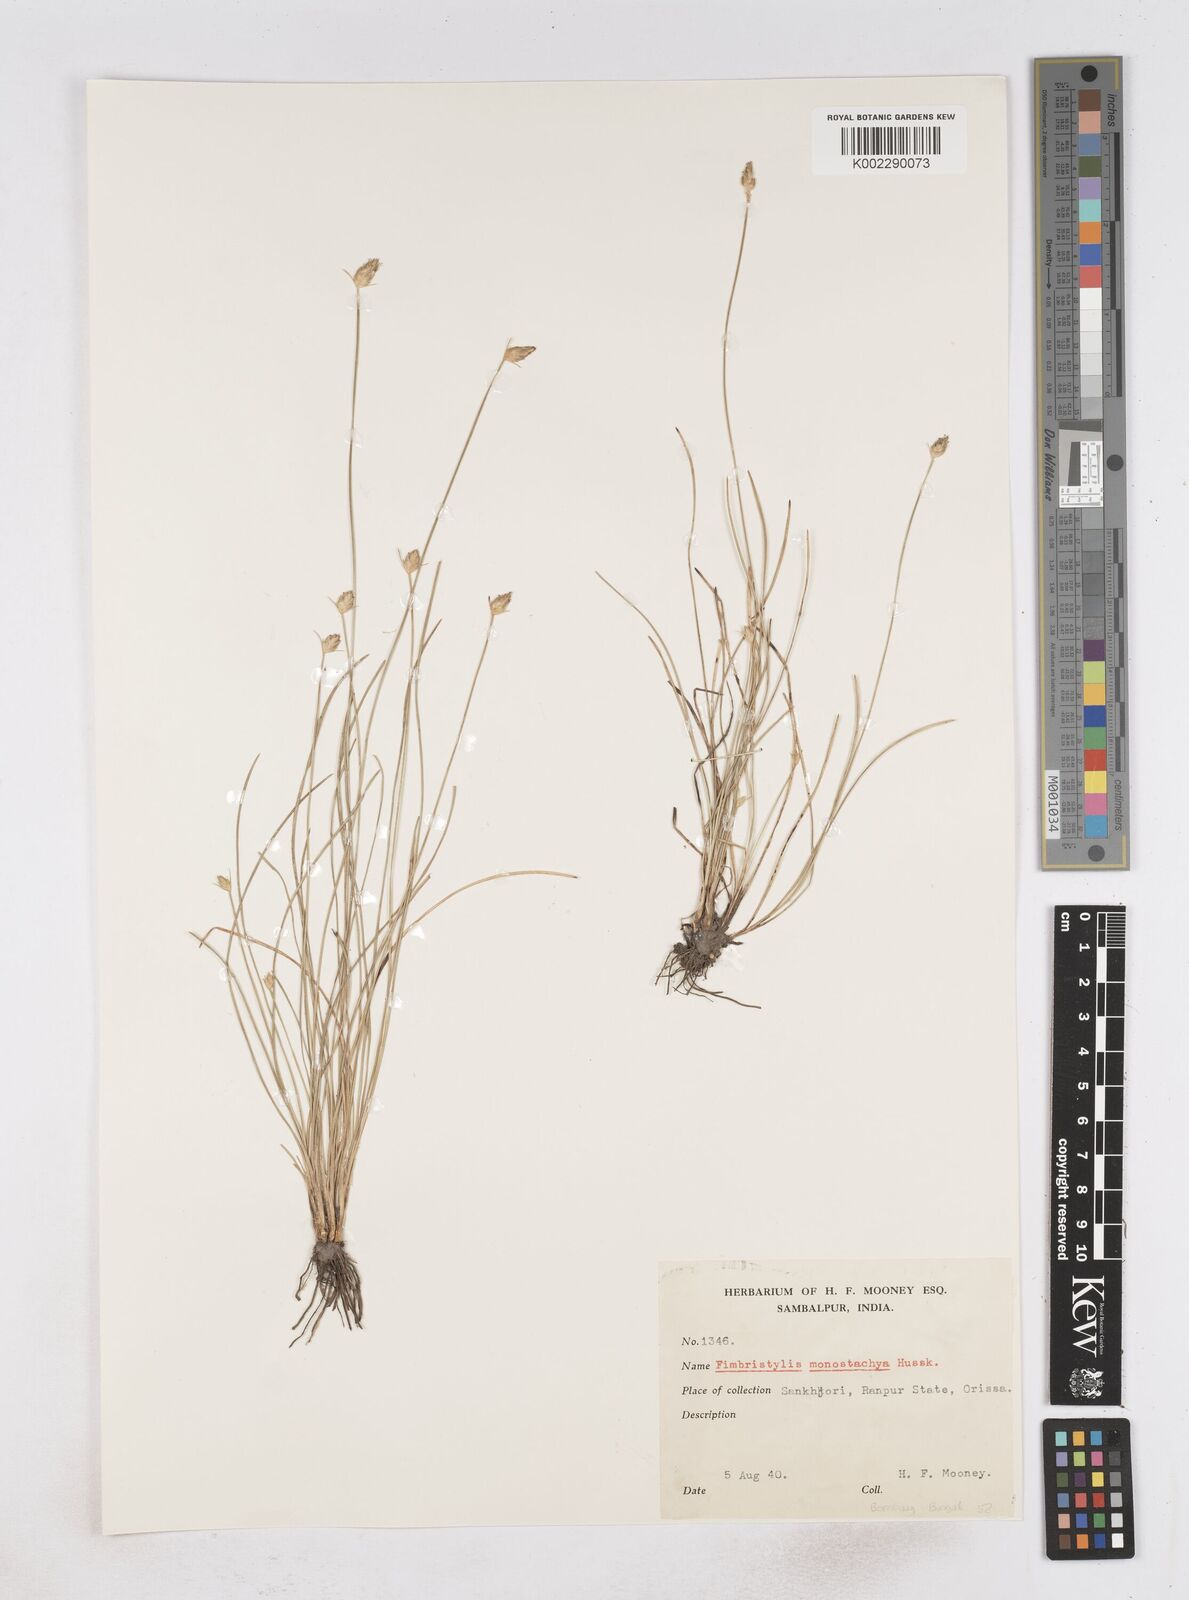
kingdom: Plantae
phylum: Tracheophyta
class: Liliopsida
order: Poales
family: Cyperaceae
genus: Abildgaardia
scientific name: Abildgaardia ovata
